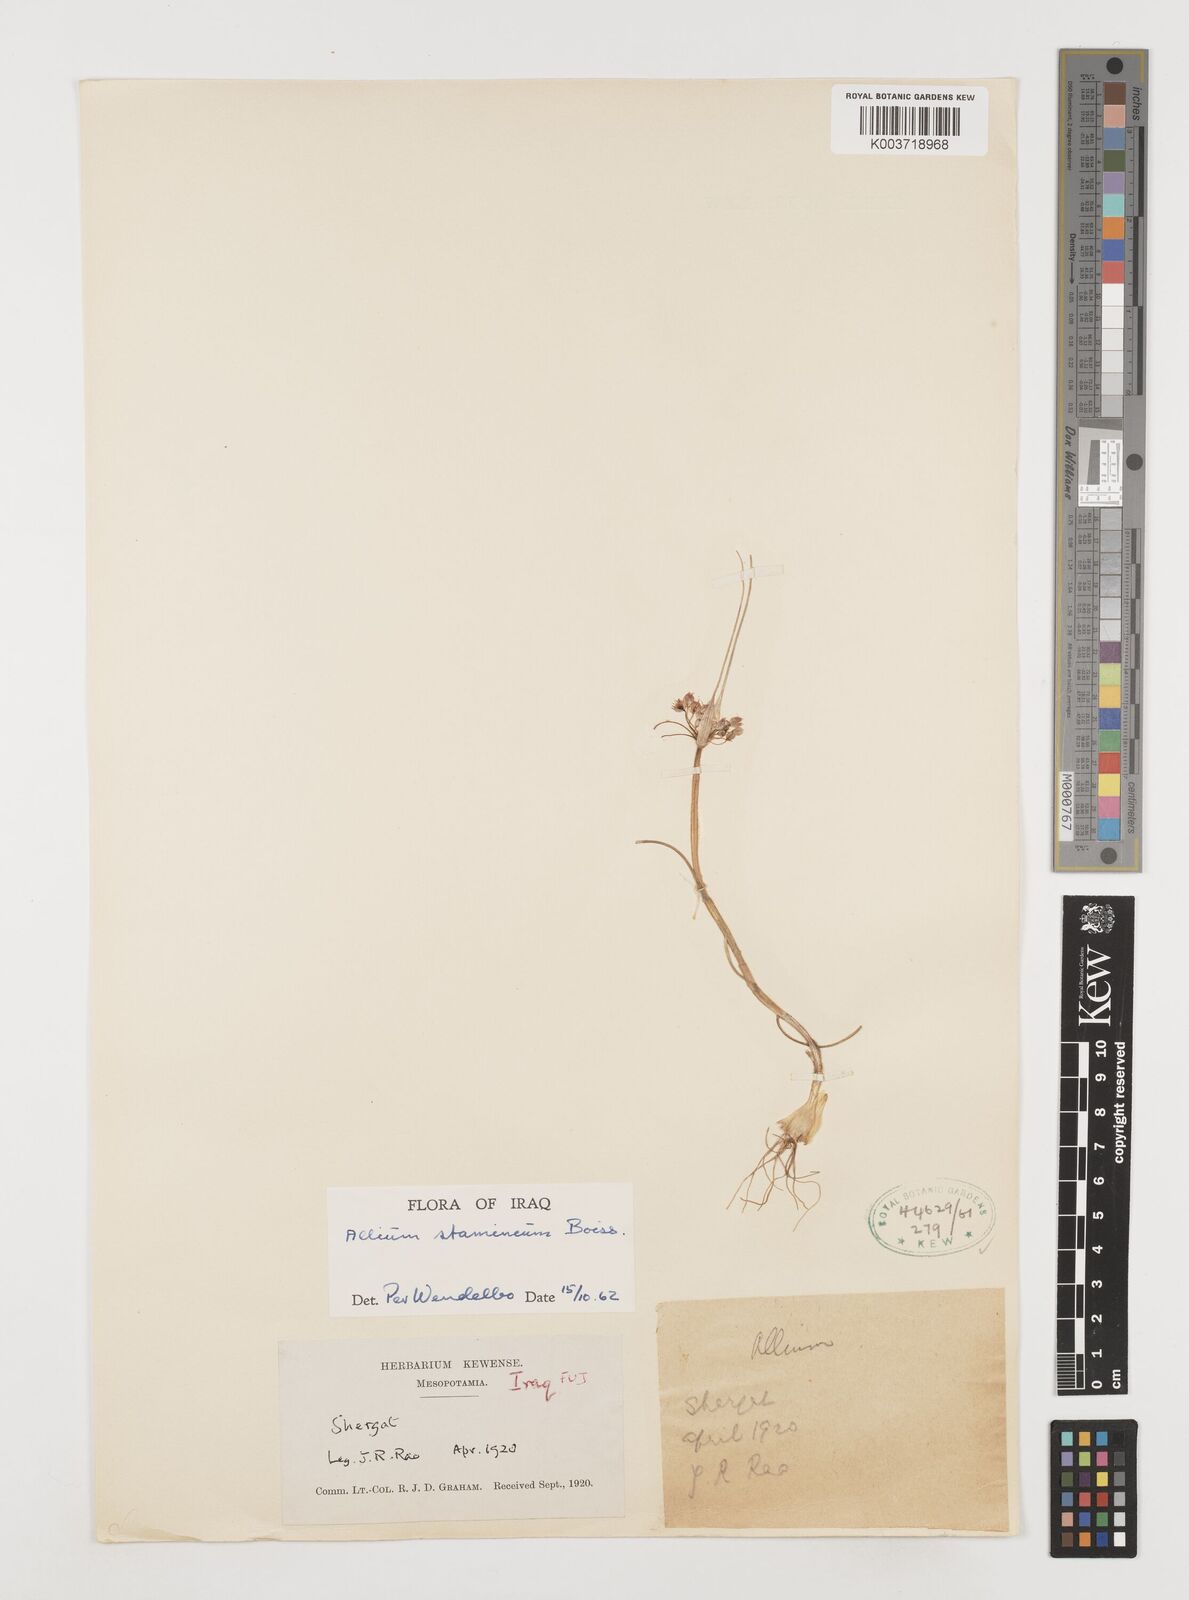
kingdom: Plantae
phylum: Tracheophyta
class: Liliopsida
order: Asparagales
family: Amaryllidaceae
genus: Allium
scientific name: Allium stamineum
